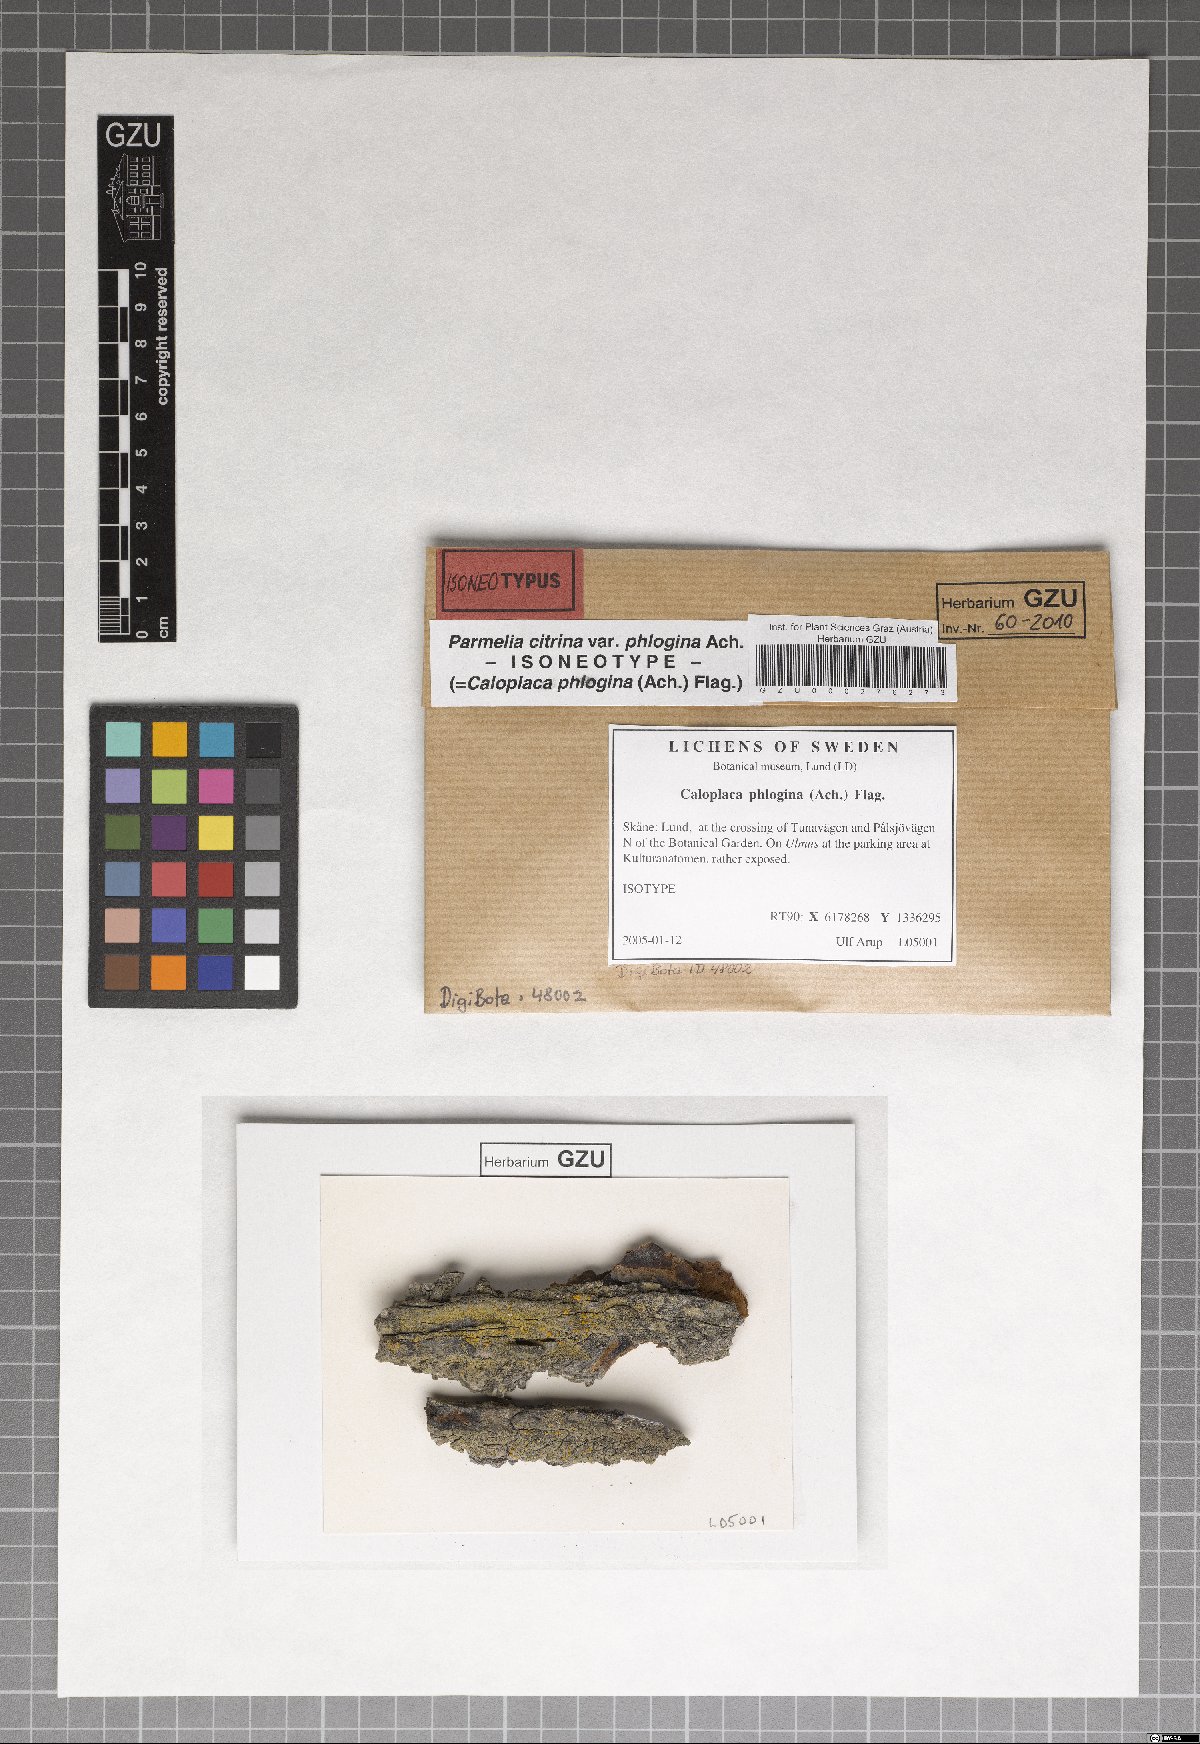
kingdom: Fungi
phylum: Ascomycota
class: Lecanoromycetes
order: Lecanorales
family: Parmeliaceae
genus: Parmelinella
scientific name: Parmelinella
